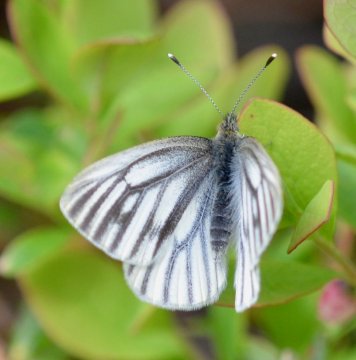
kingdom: Animalia
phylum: Arthropoda
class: Insecta
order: Lepidoptera
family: Pieridae
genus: Pieris
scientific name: Pieris angelika
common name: Arctic White
